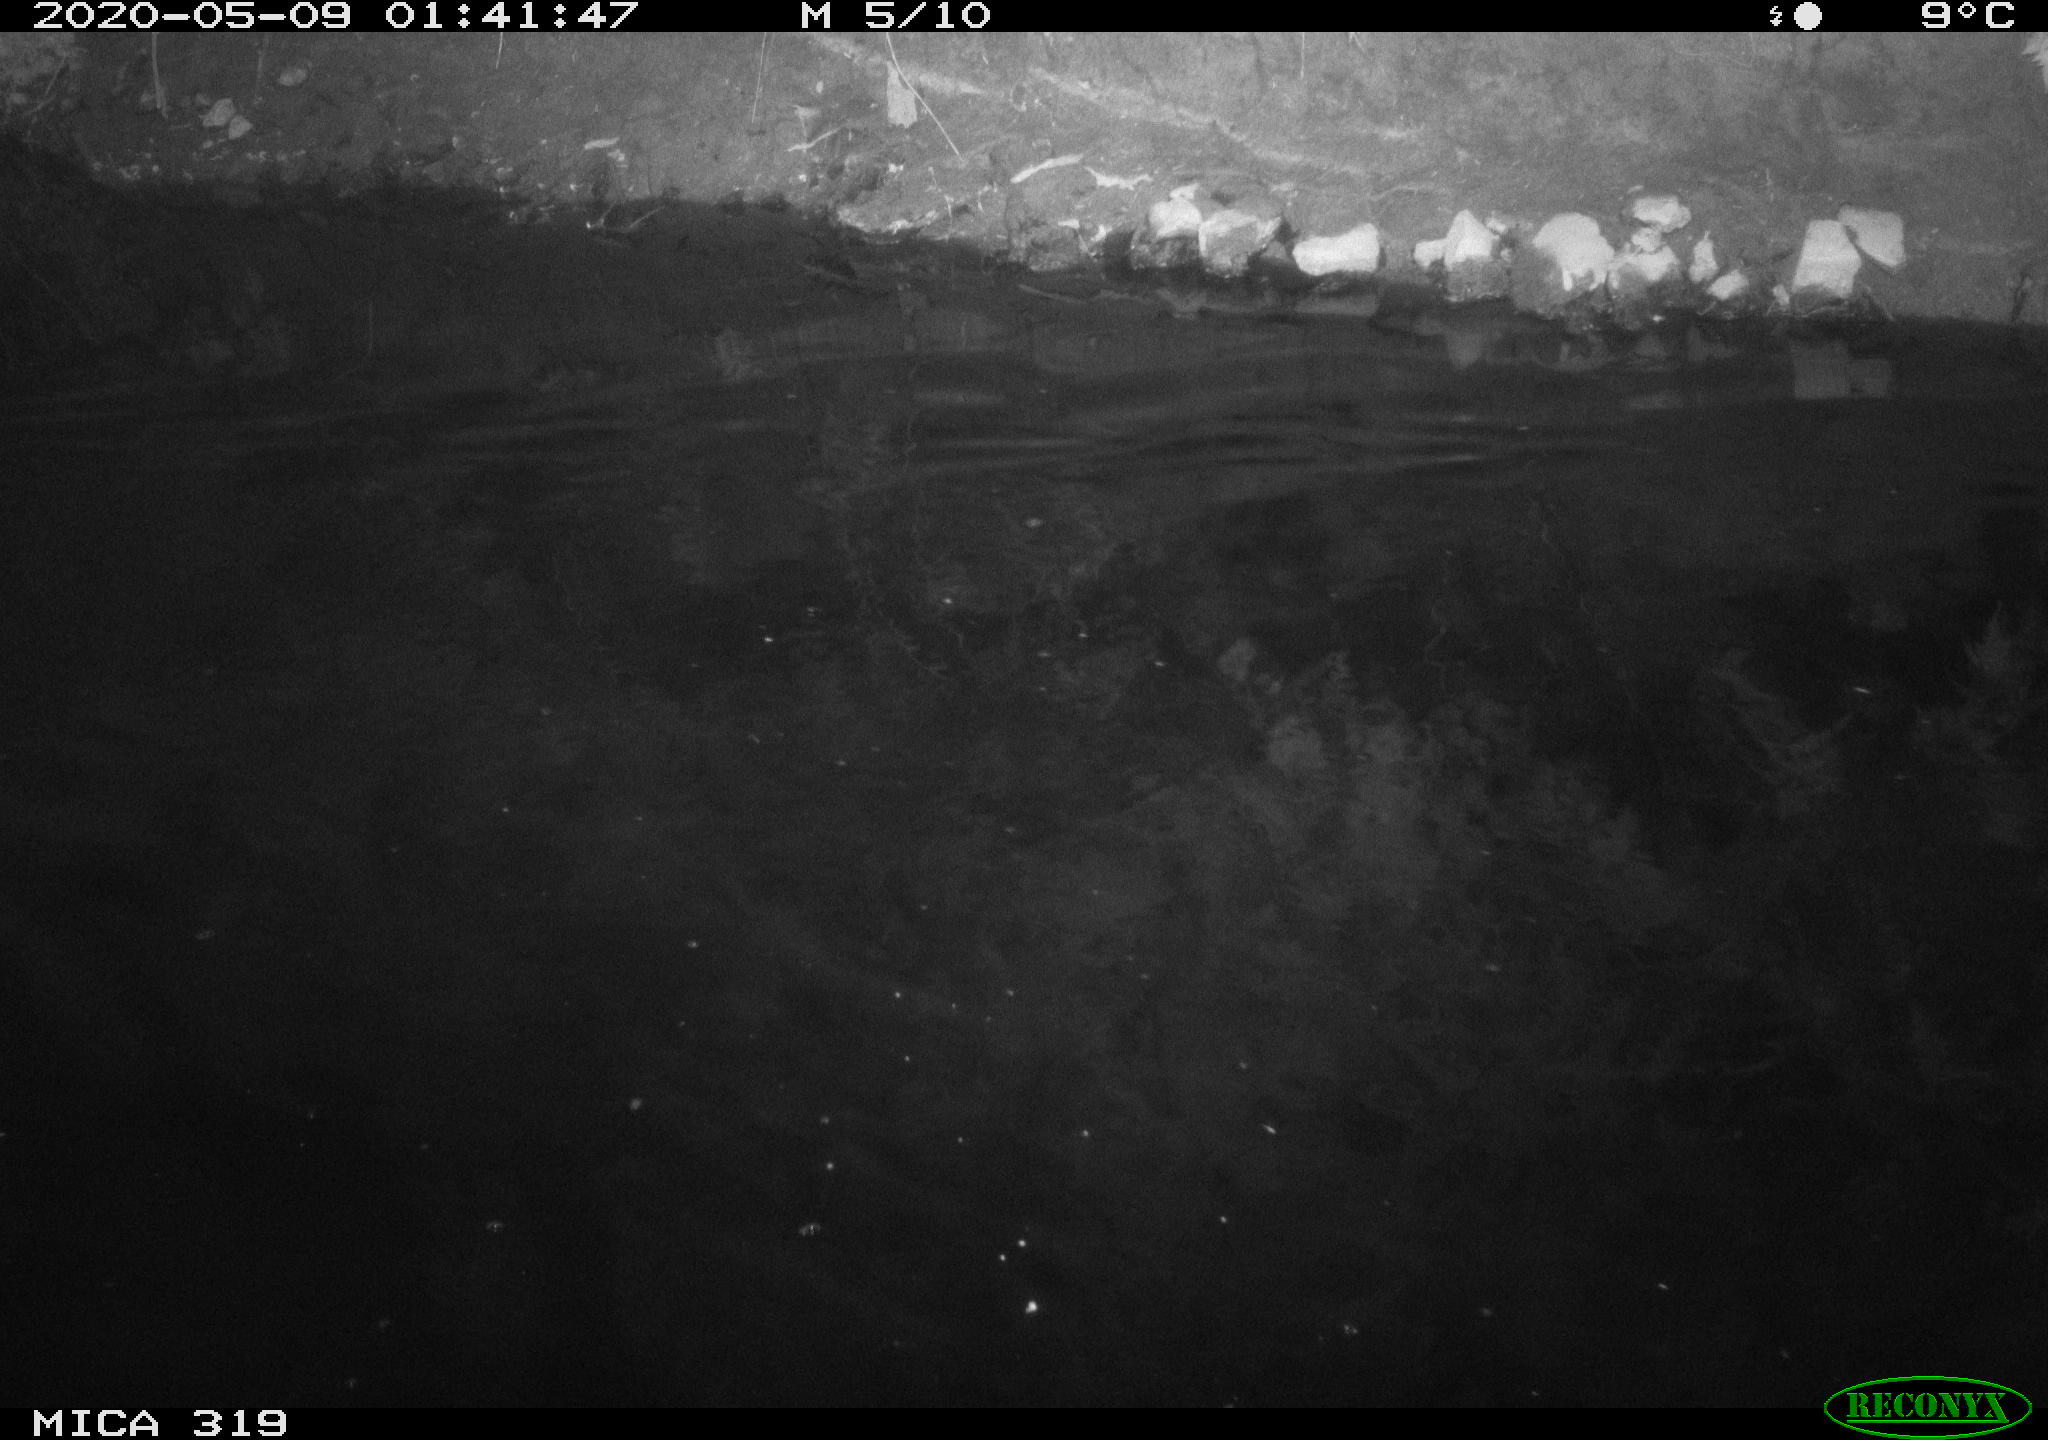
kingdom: Animalia
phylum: Chordata
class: Aves
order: Anseriformes
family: Anatidae
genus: Anas
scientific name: Anas platyrhynchos
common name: Mallard
